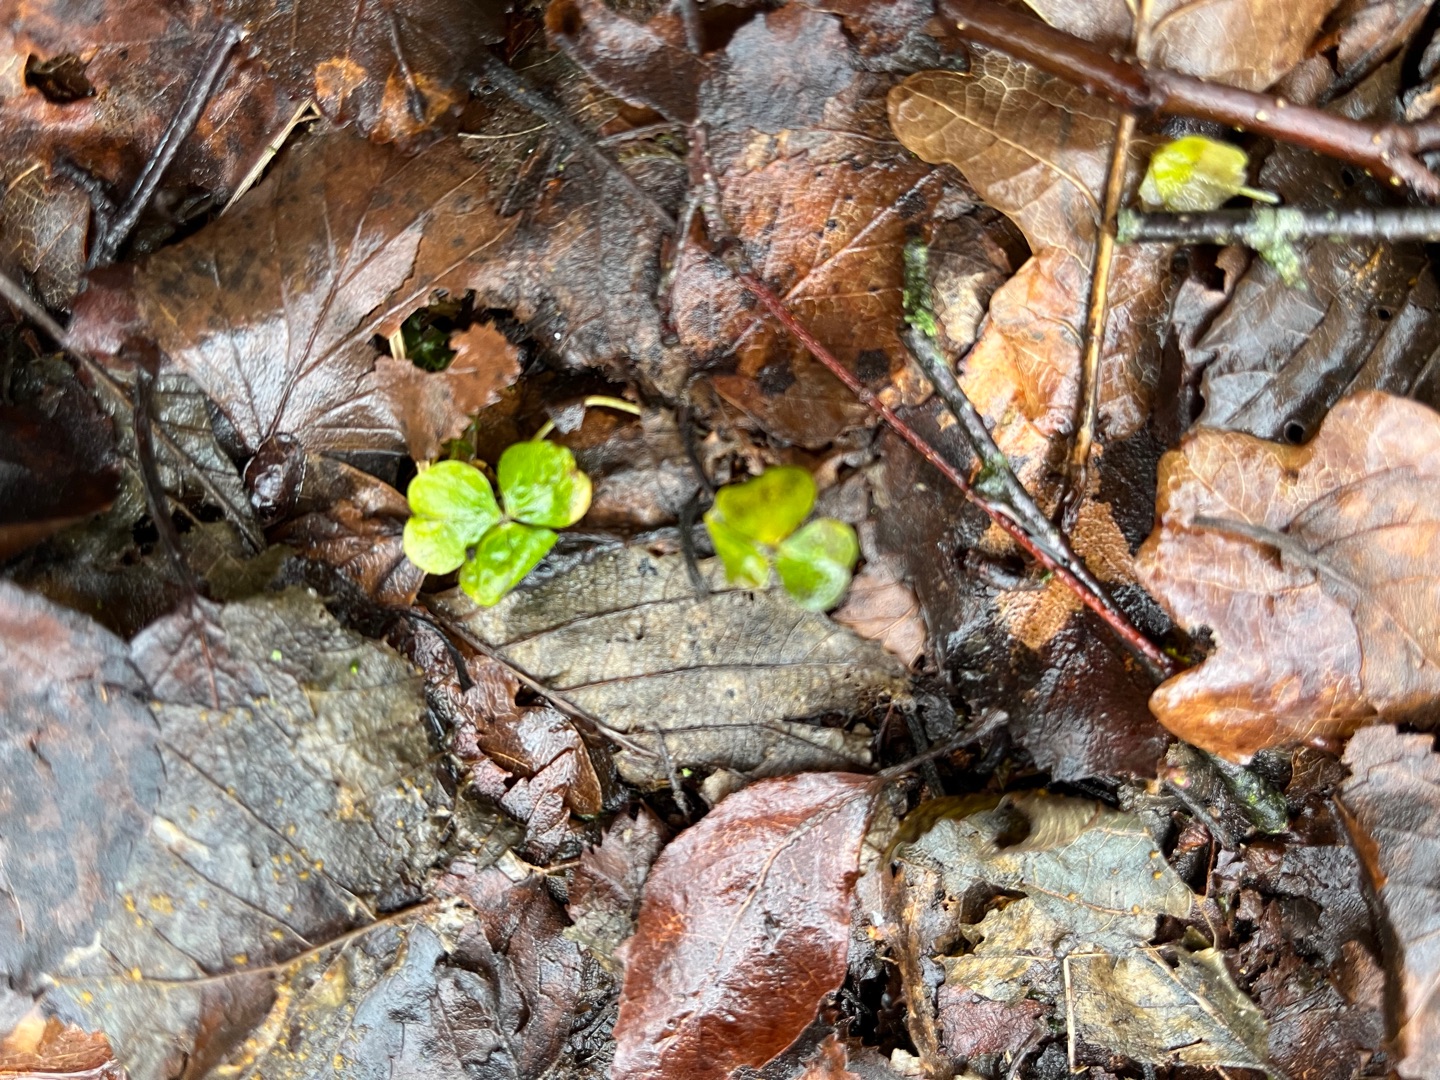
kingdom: Plantae
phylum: Tracheophyta
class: Magnoliopsida
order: Oxalidales
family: Oxalidaceae
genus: Oxalis
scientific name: Oxalis acetosella
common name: Skovsyre
